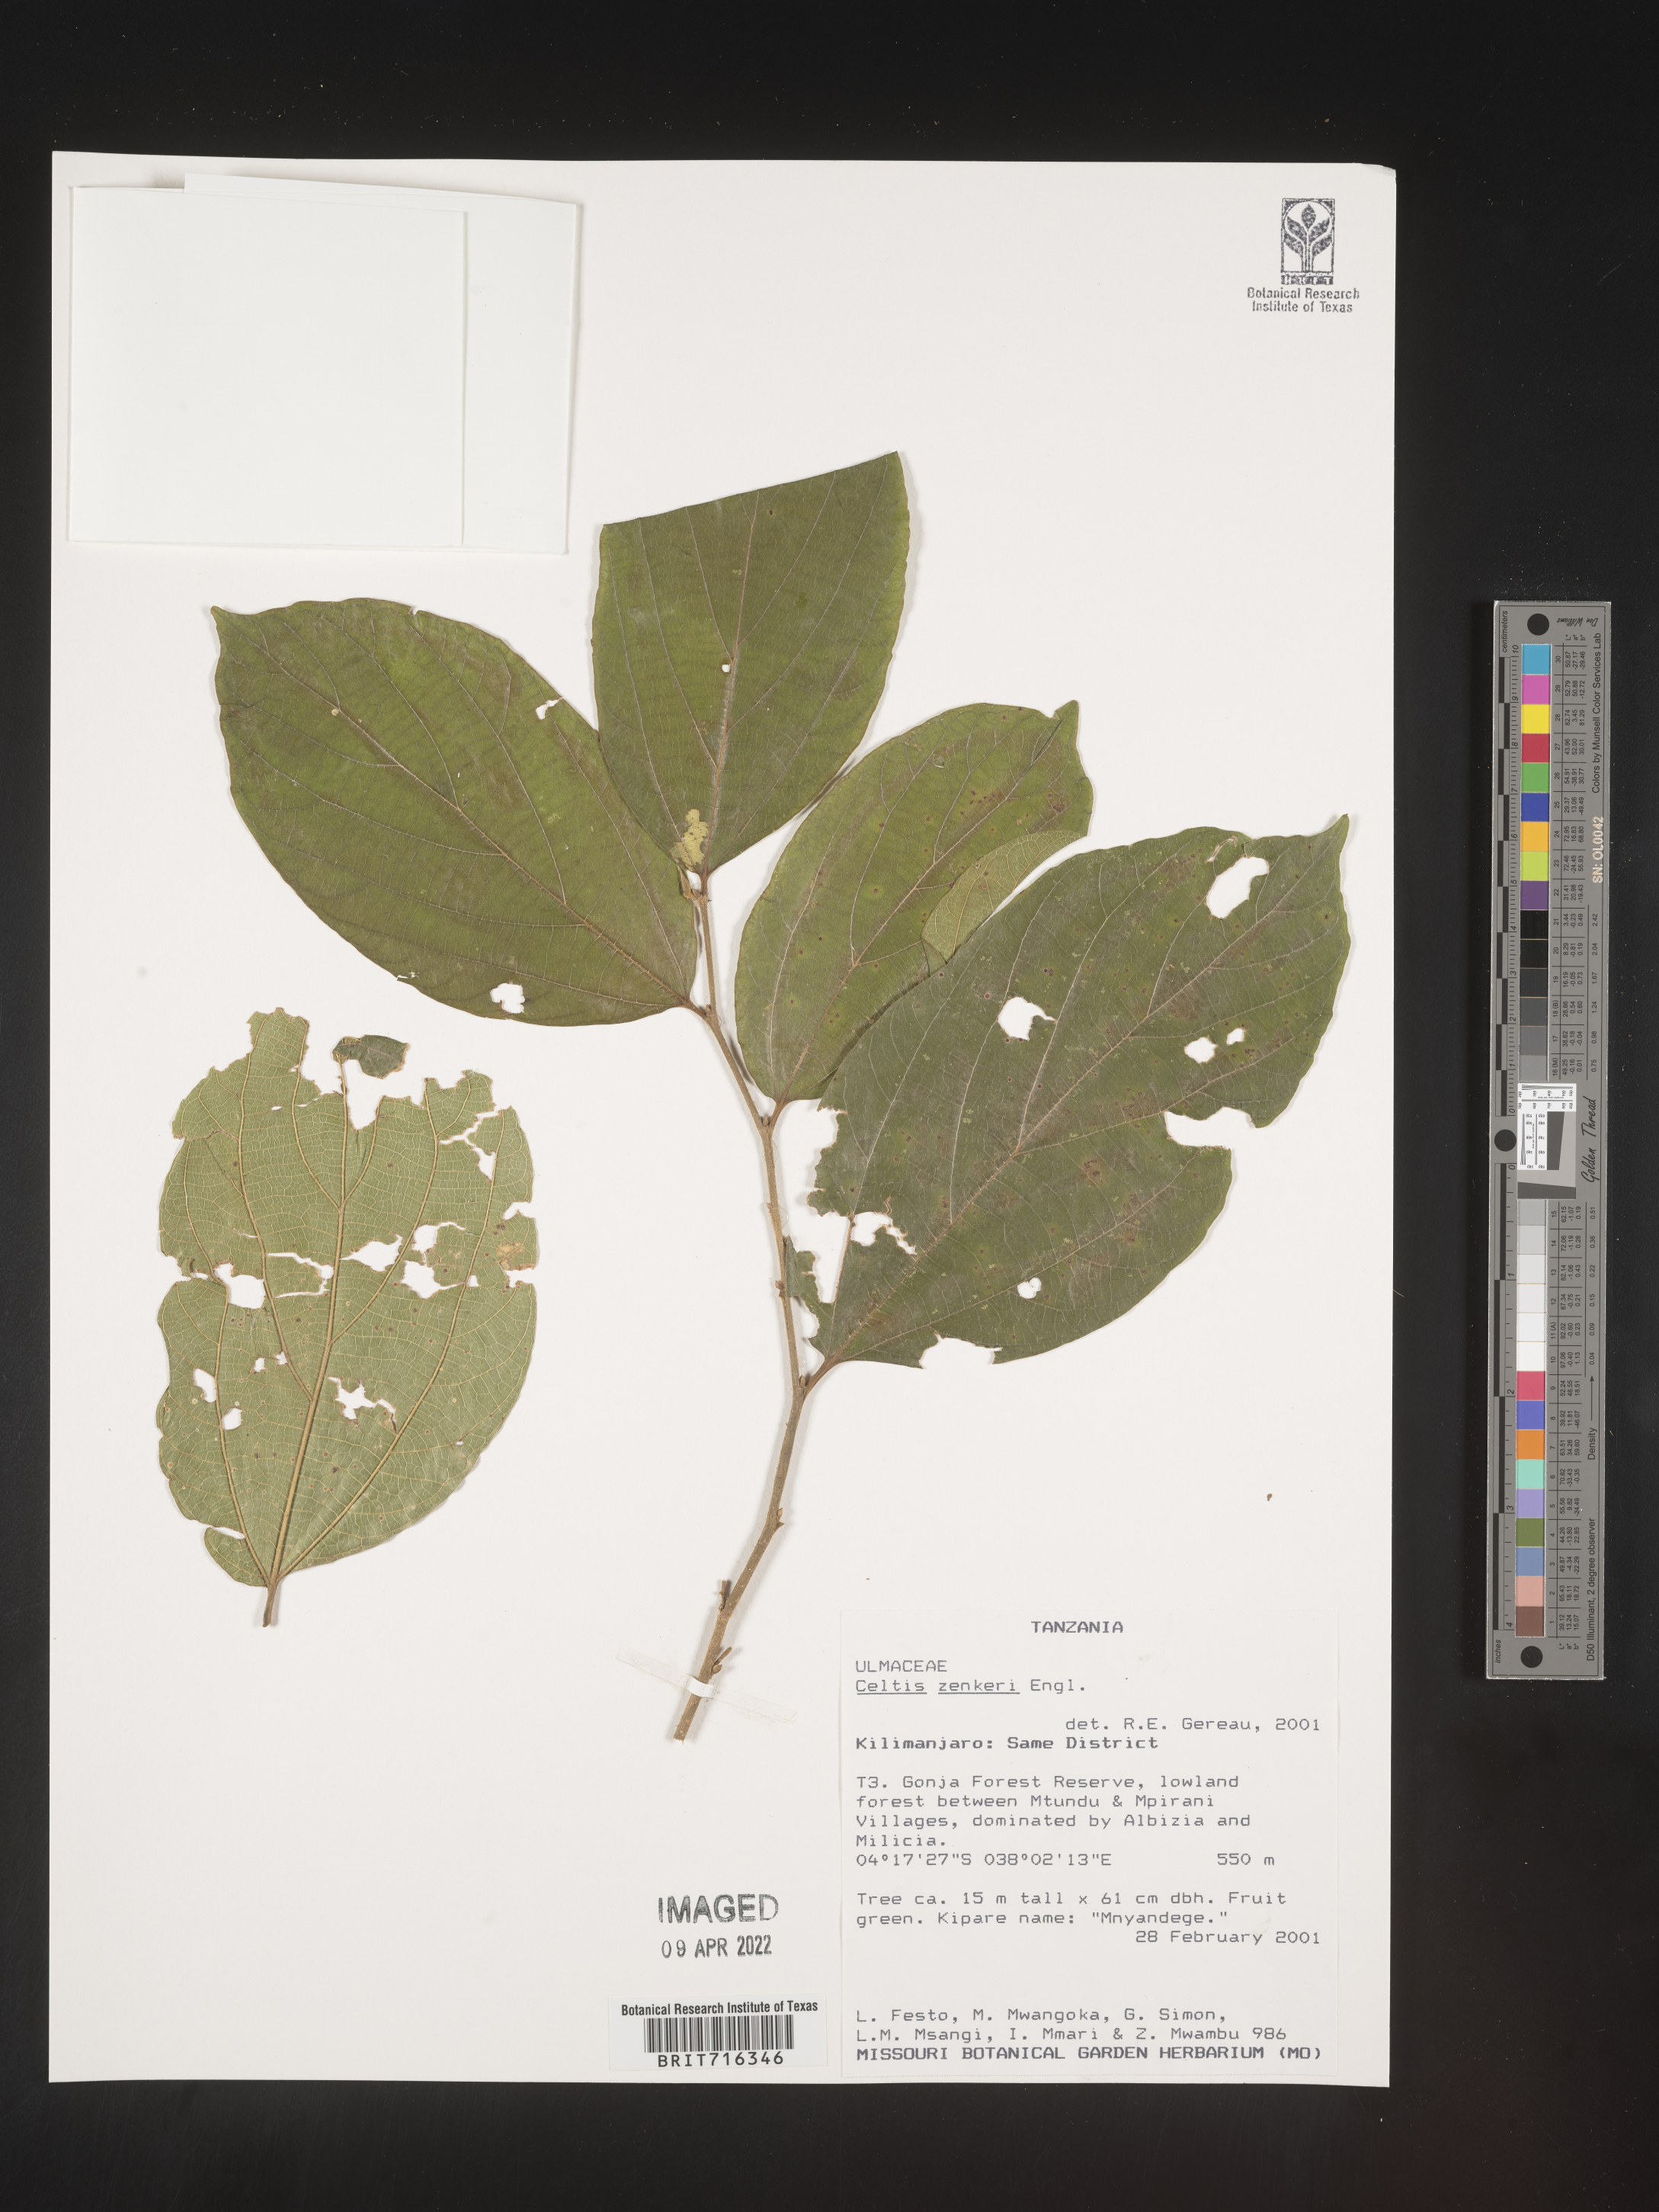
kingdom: Plantae
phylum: Tracheophyta
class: Magnoliopsida
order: Rosales
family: Cannabaceae
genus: Celtis
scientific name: Celtis
